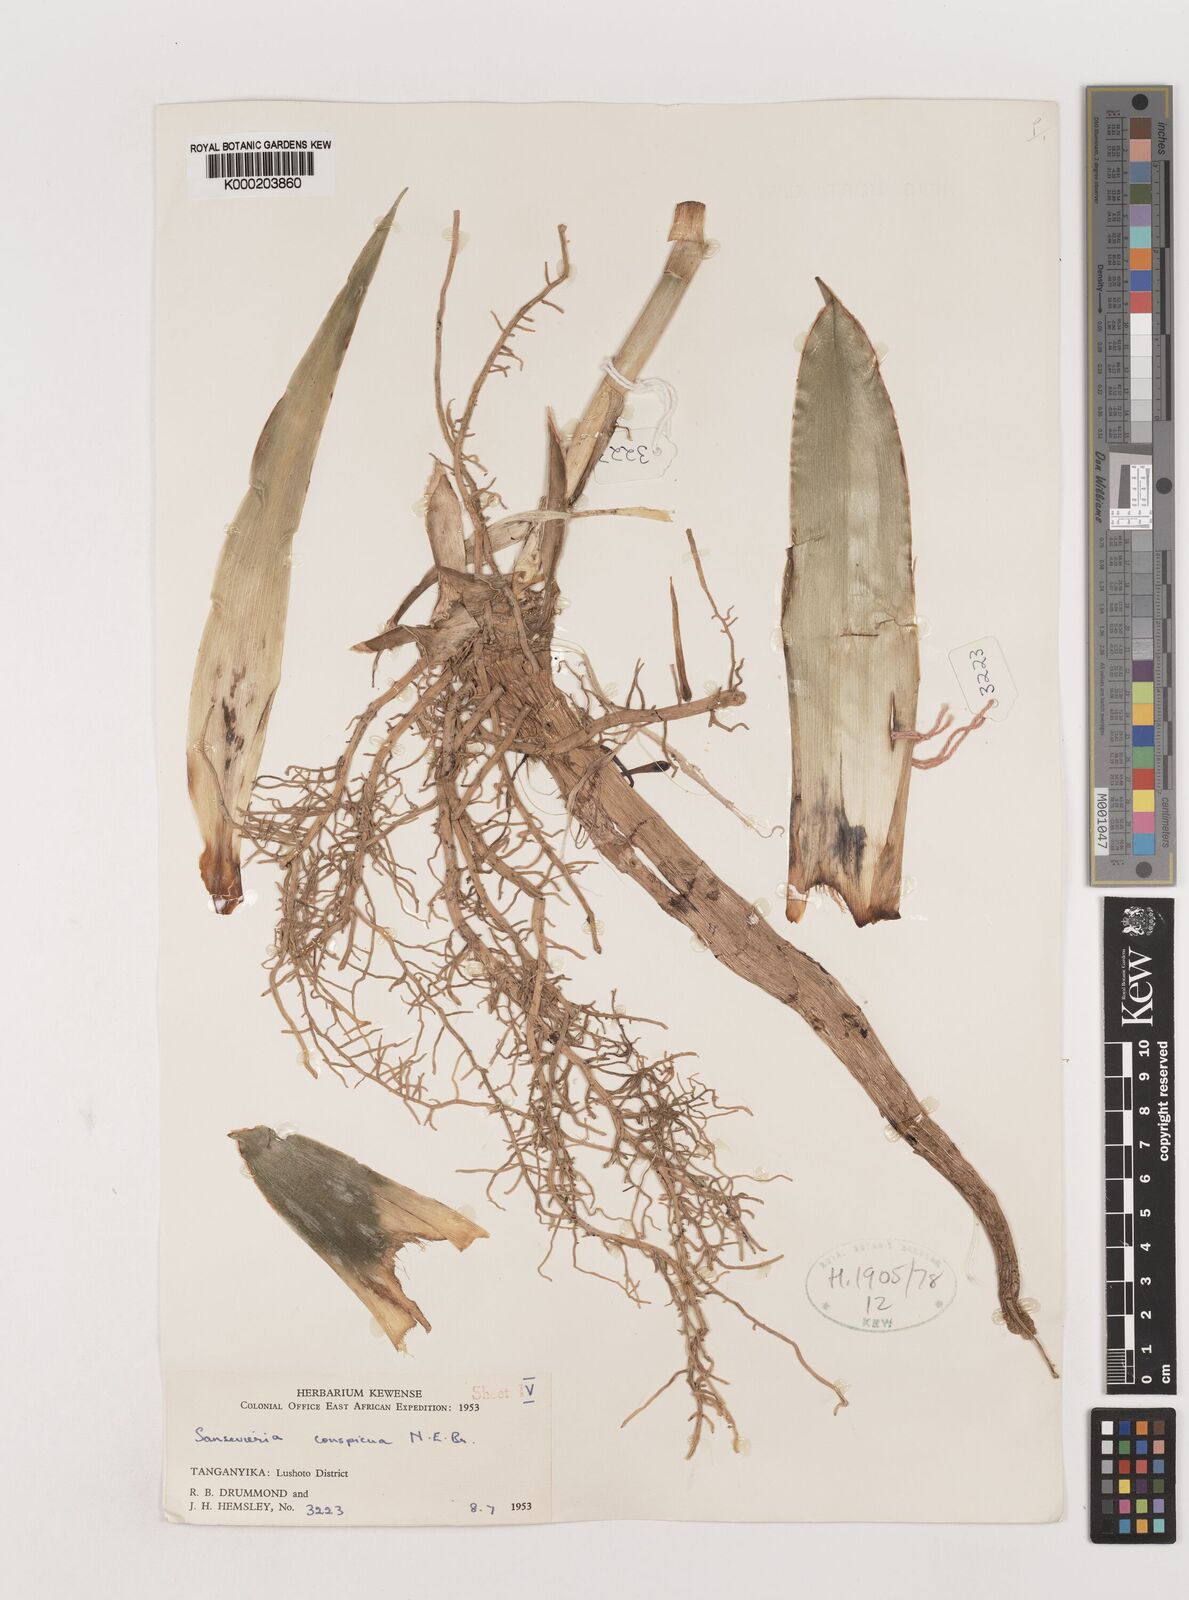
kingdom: Plantae
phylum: Tracheophyta
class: Liliopsida
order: Asparagales
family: Asparagaceae
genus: Dracaena
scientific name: Dracaena conspicua
